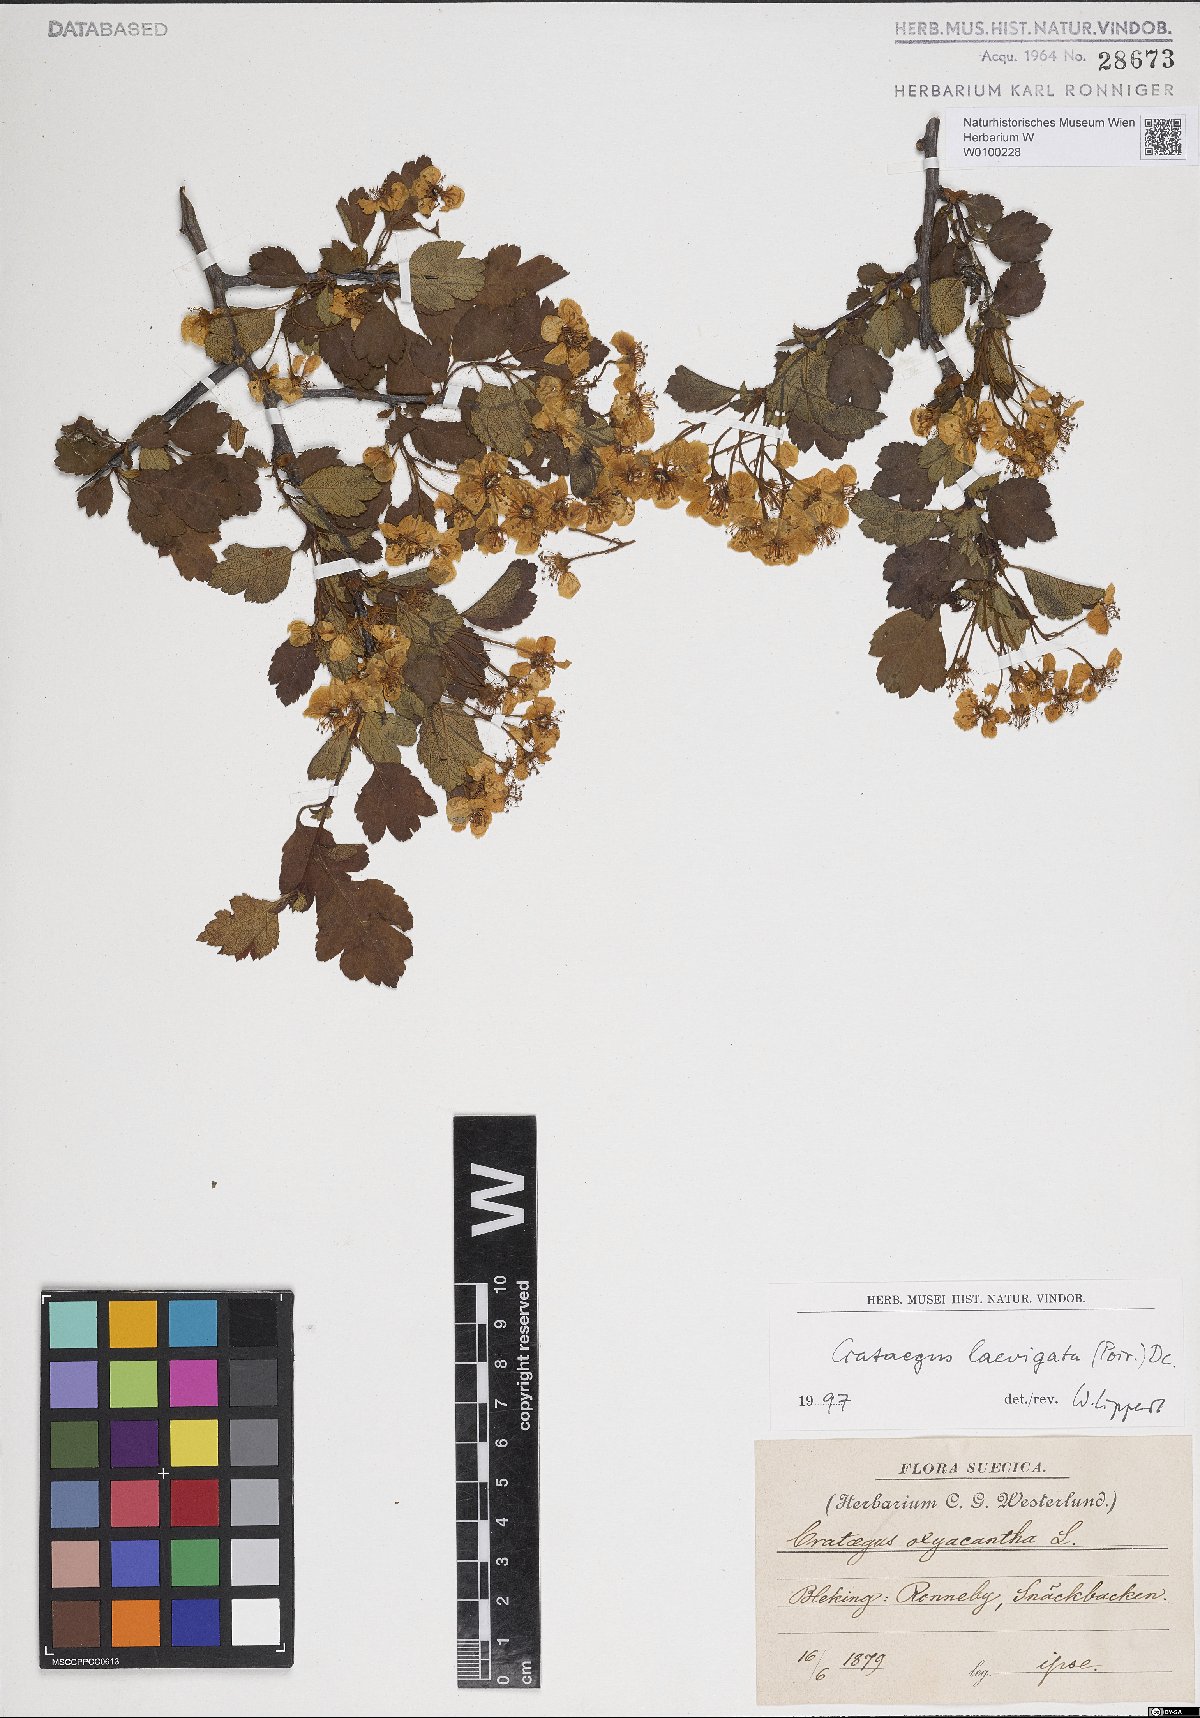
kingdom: Plantae
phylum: Tracheophyta
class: Magnoliopsida
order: Rosales
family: Rosaceae
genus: Crataegus
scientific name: Crataegus laevigata
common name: Midland hawthorn
